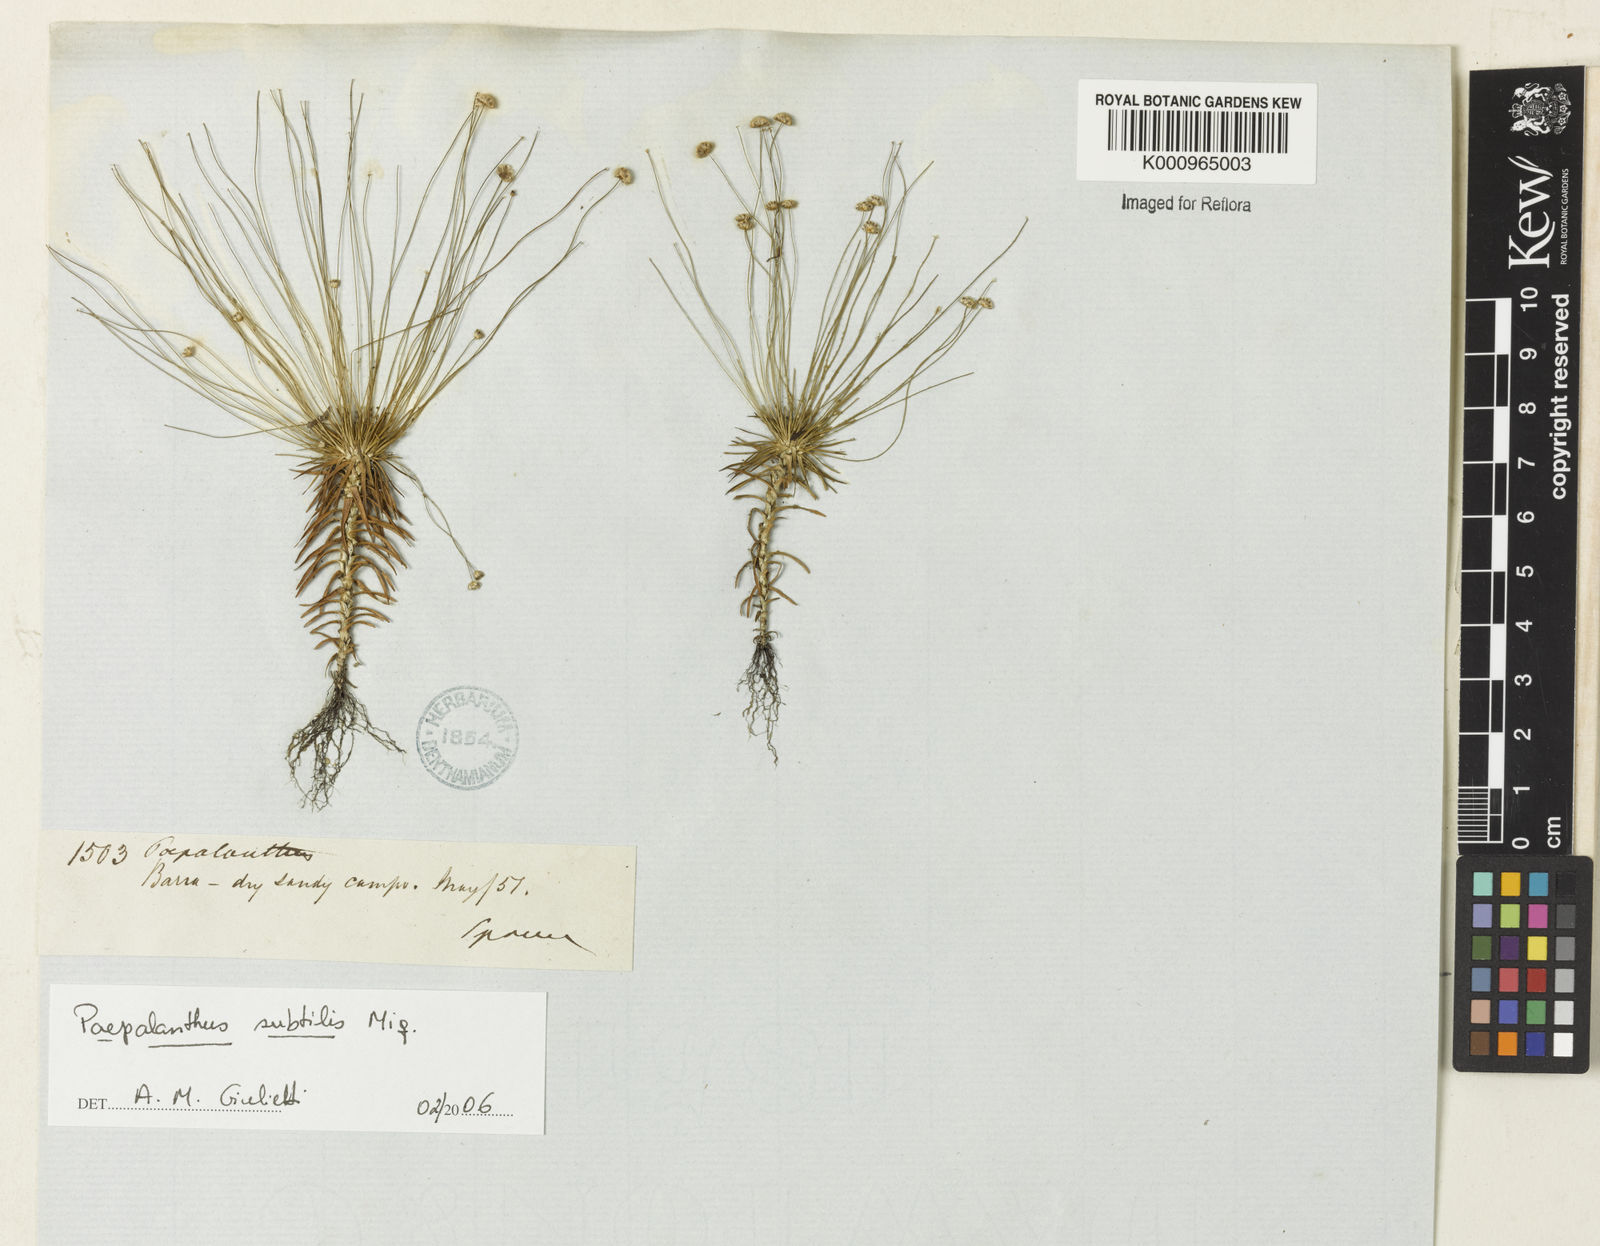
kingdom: Plantae
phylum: Tracheophyta
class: Liliopsida
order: Poales
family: Eriocaulaceae
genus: Paepalanthus
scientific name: Paepalanthus subtilis
